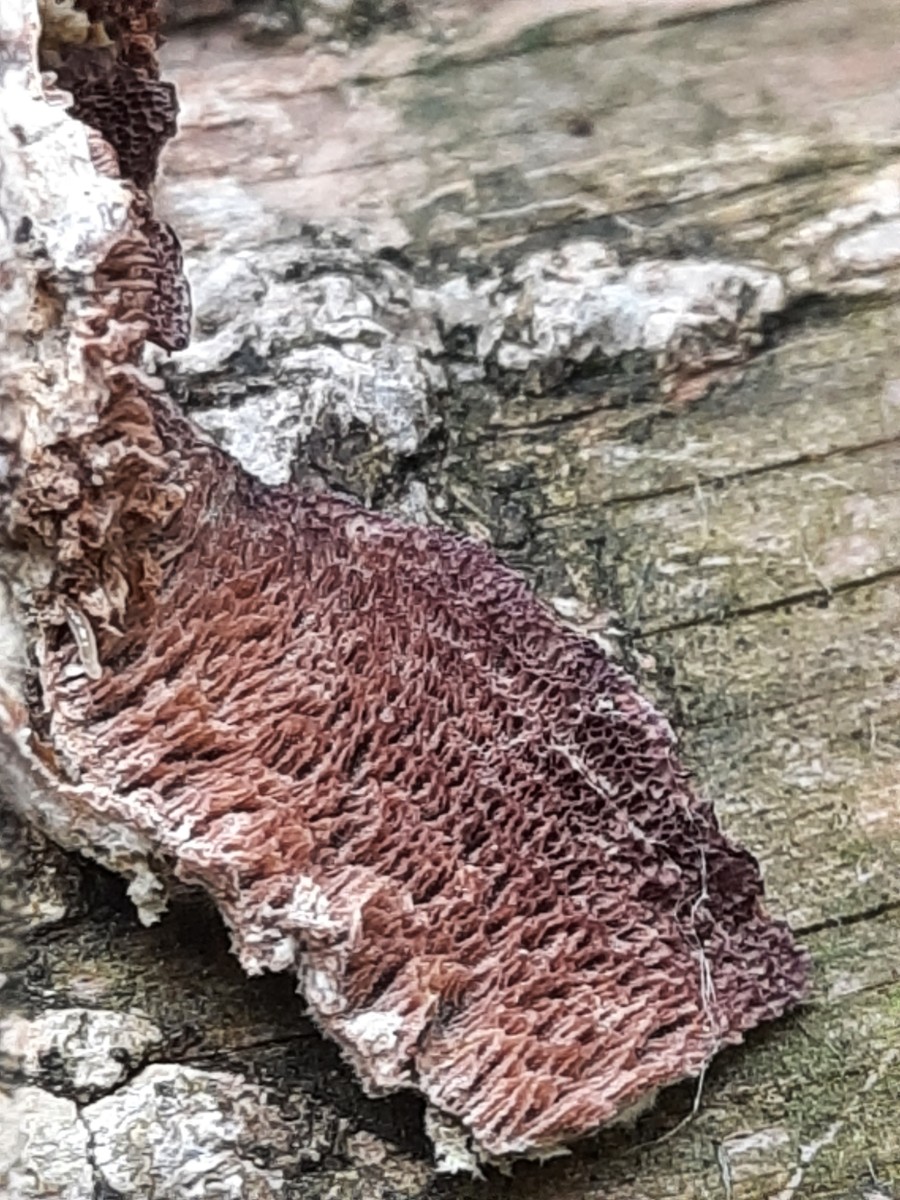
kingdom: Fungi
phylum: Basidiomycota
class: Agaricomycetes
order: Hymenochaetales
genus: Trichaptum
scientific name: Trichaptum fuscoviolaceum
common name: tandet violporesvamp
